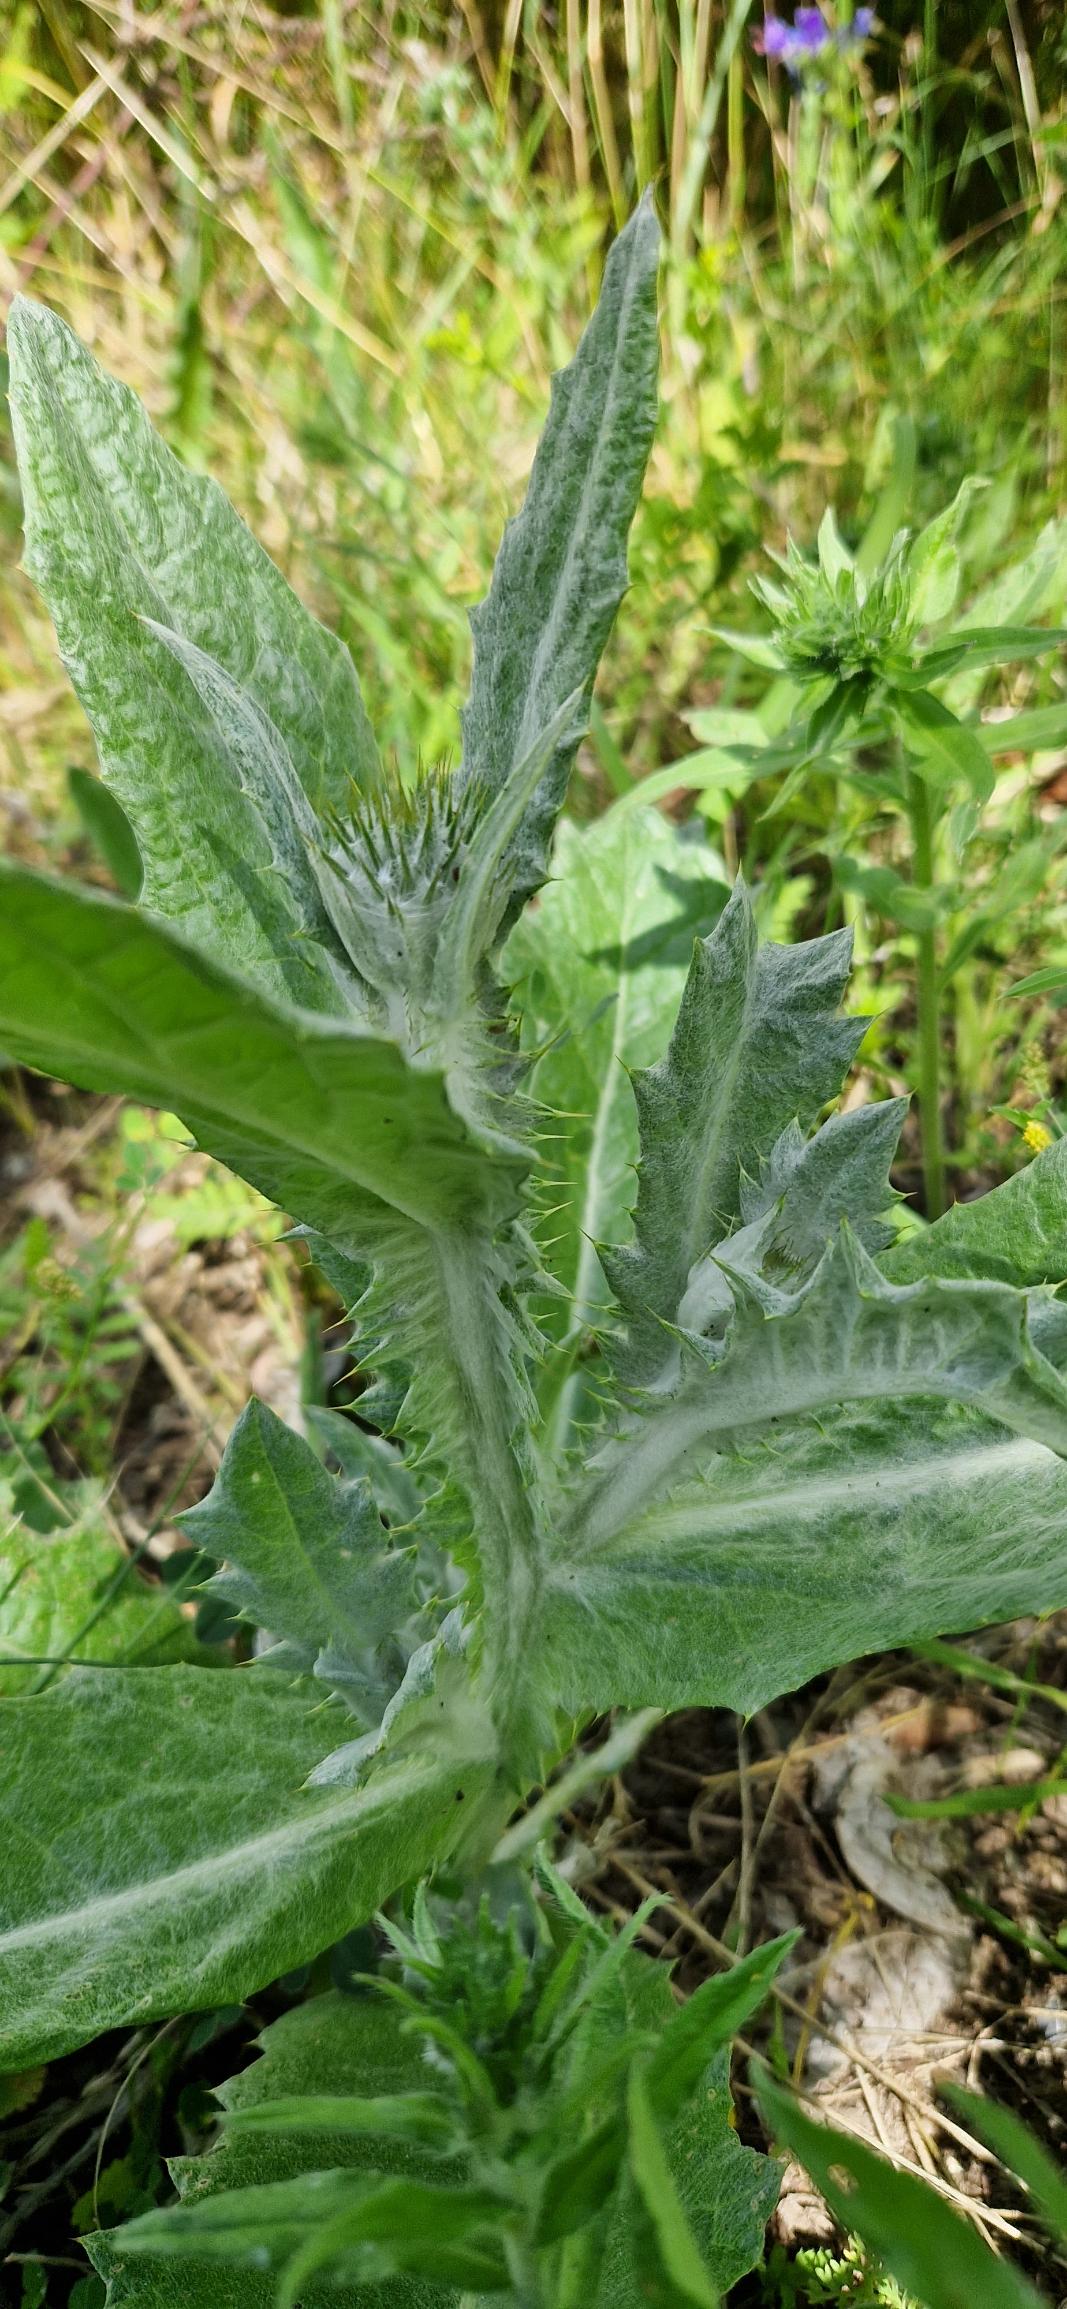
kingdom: Plantae
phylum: Tracheophyta
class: Magnoliopsida
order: Asterales
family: Asteraceae
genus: Onopordum
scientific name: Onopordum acanthium
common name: Æselfoder
